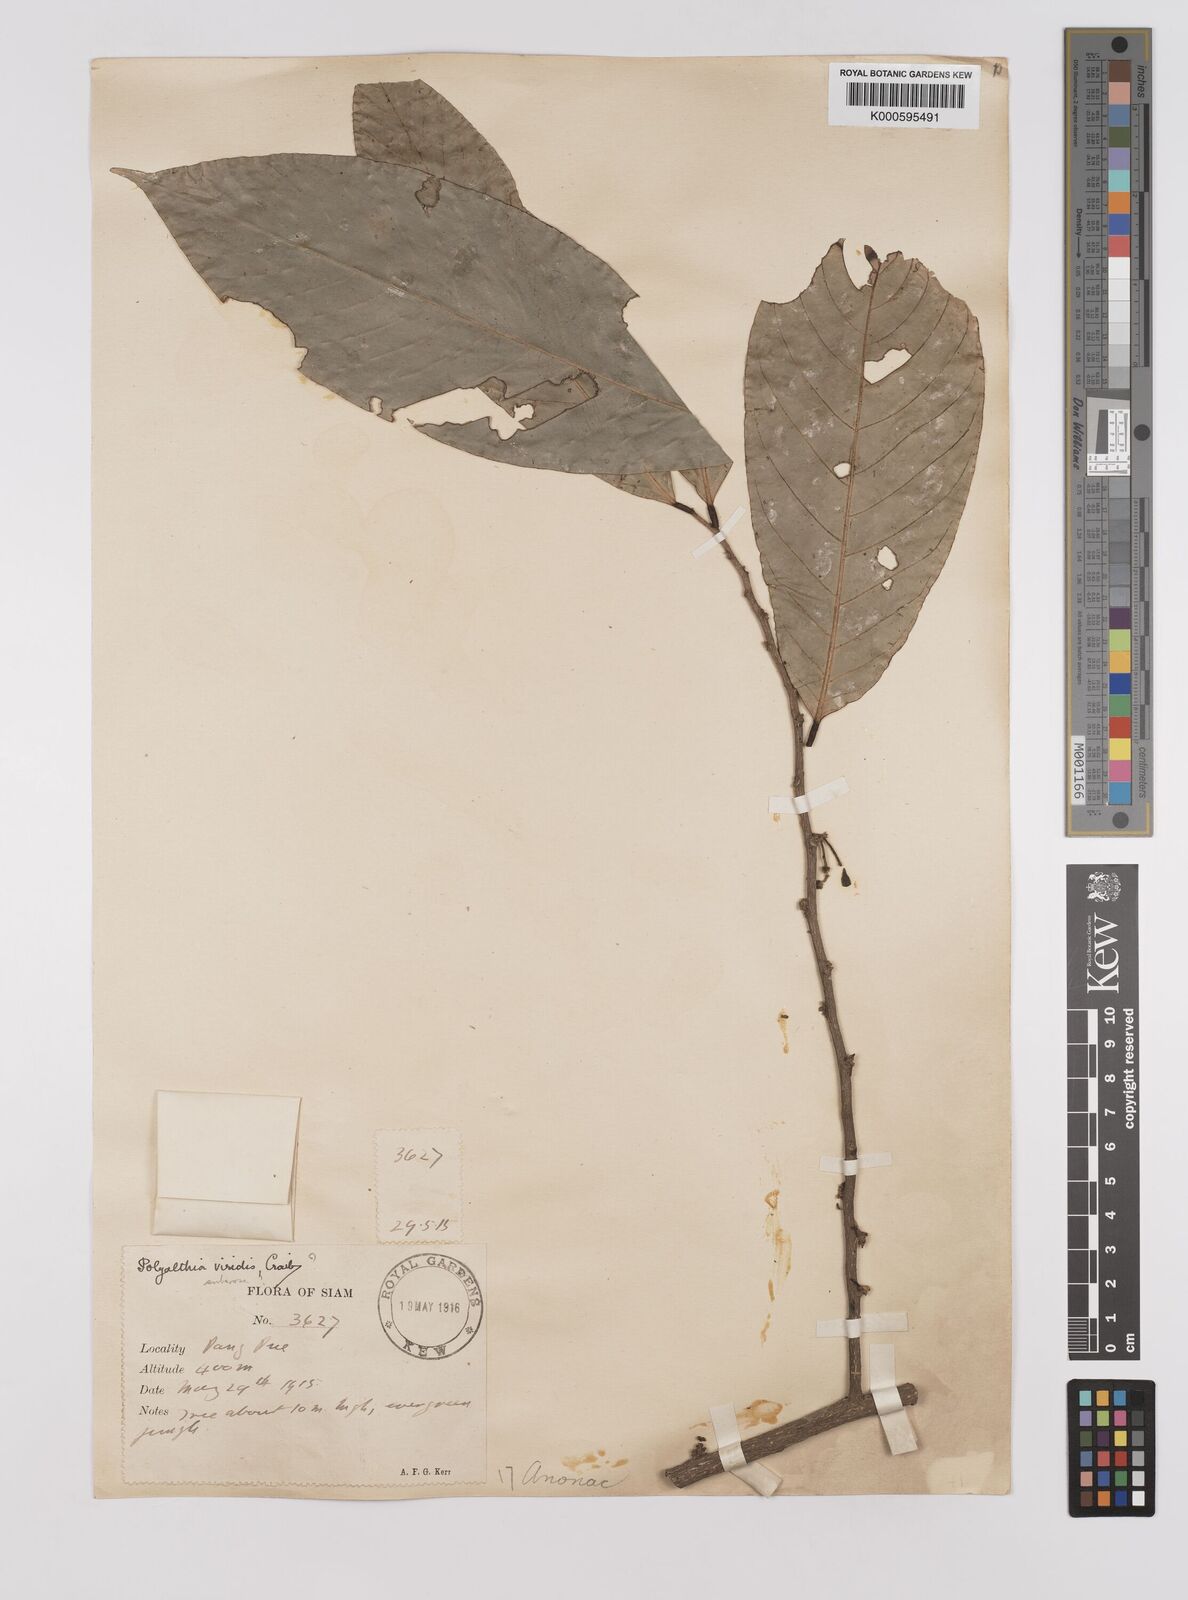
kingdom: Plantae
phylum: Tracheophyta
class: Magnoliopsida
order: Magnoliales
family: Annonaceae
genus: Polyalthia
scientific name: Polyalthia viridis
